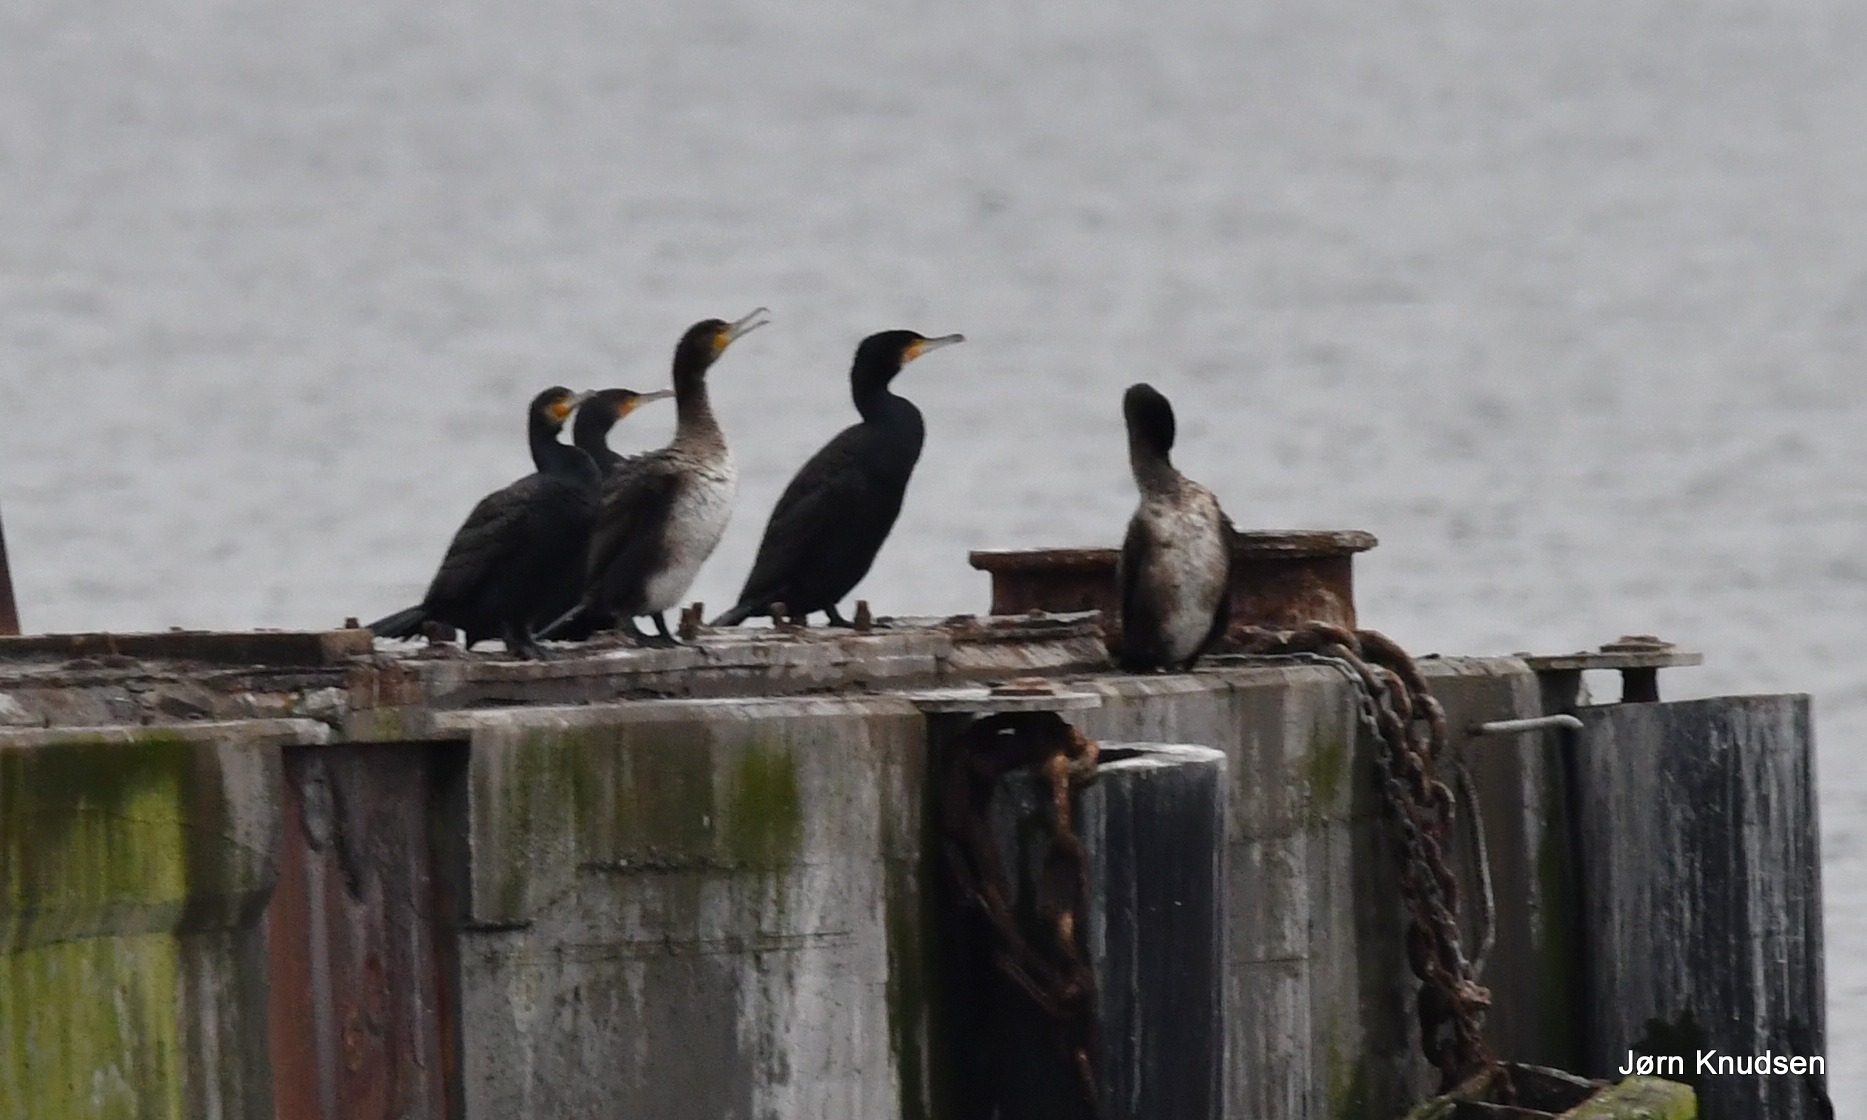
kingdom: Animalia
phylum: Chordata
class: Aves
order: Suliformes
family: Phalacrocoracidae
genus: Phalacrocorax
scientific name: Phalacrocorax carbo
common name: Skarv
